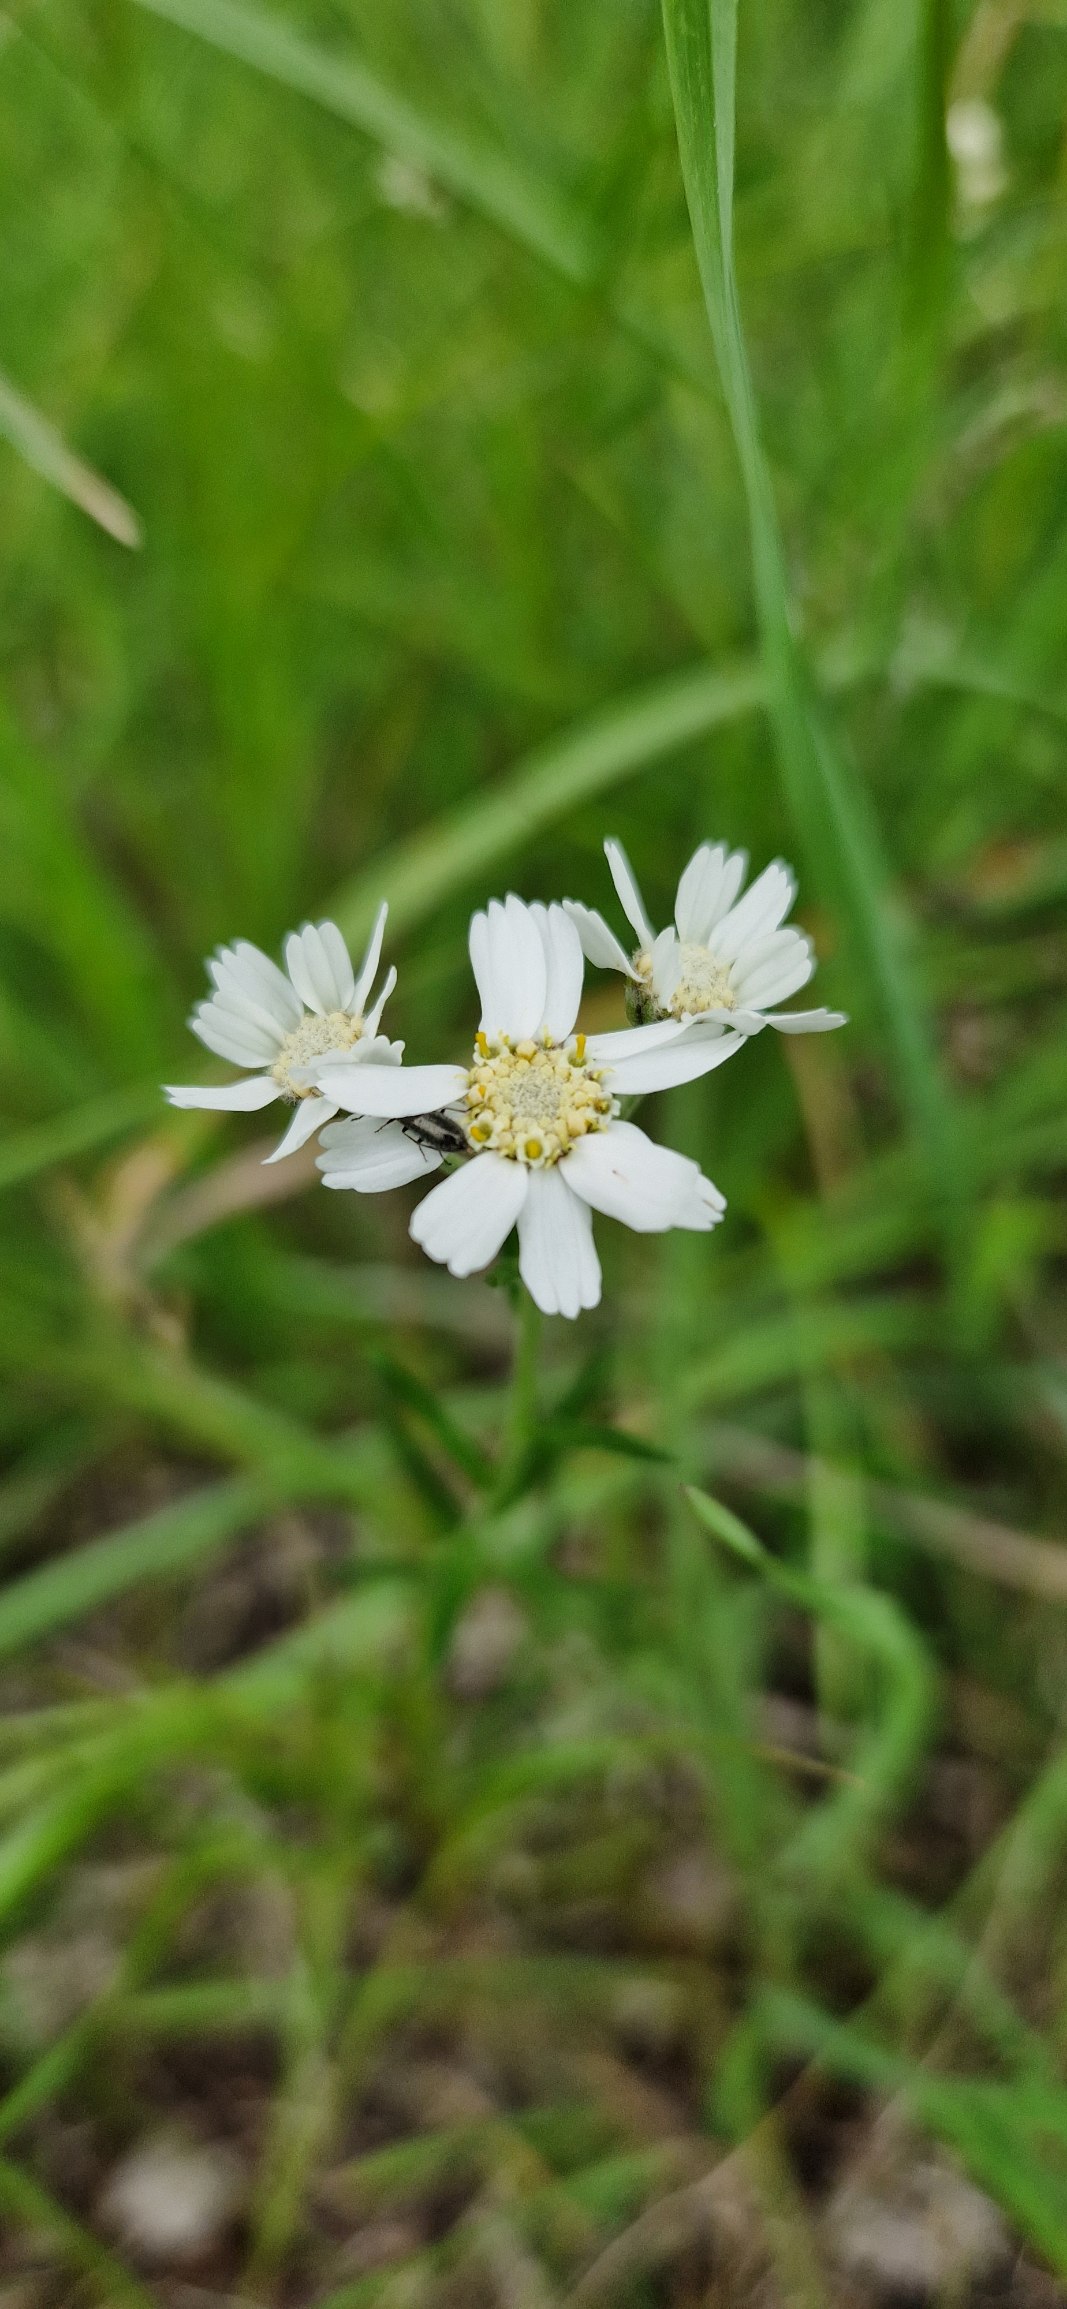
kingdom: Plantae
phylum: Tracheophyta
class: Magnoliopsida
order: Asterales
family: Asteraceae
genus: Achillea
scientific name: Achillea ptarmica
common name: Nyse-røllike
